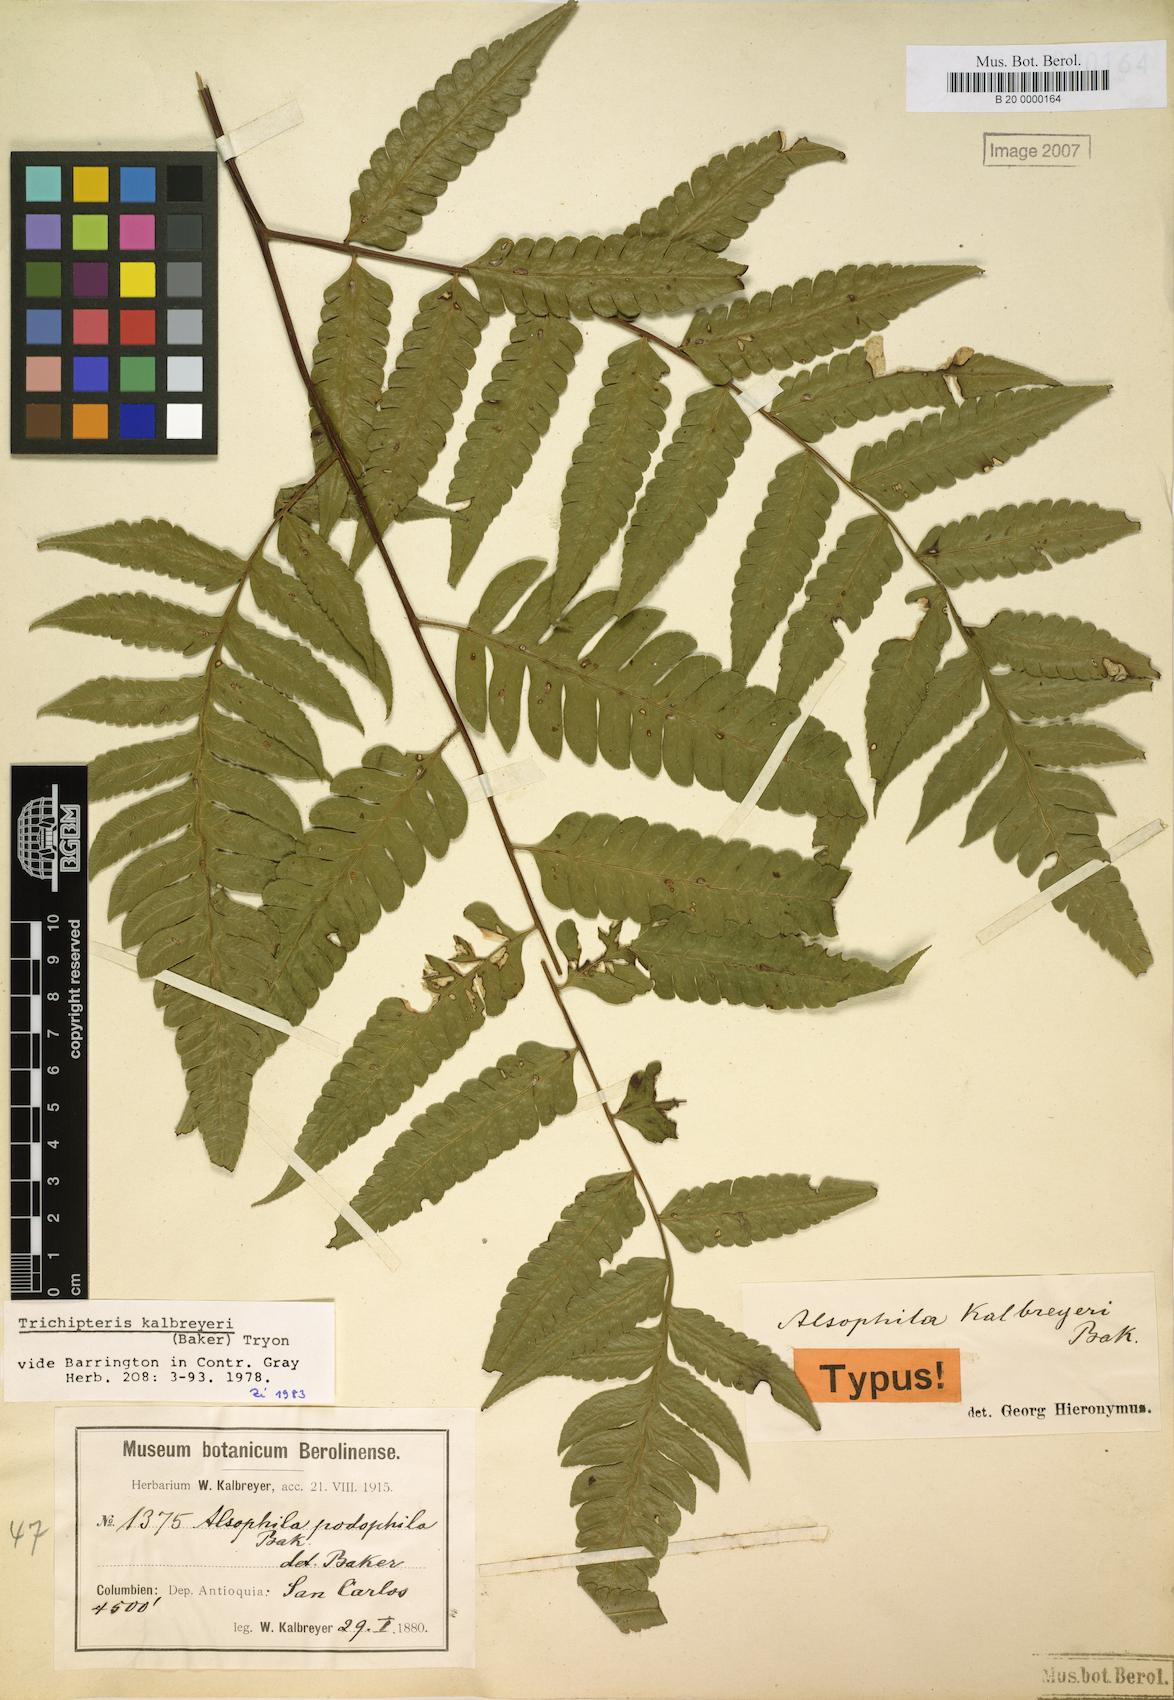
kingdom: Plantae
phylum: Tracheophyta
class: Polypodiopsida
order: Cyatheales
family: Cyatheaceae
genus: Cyathea
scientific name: Cyathea kalbreyeri
